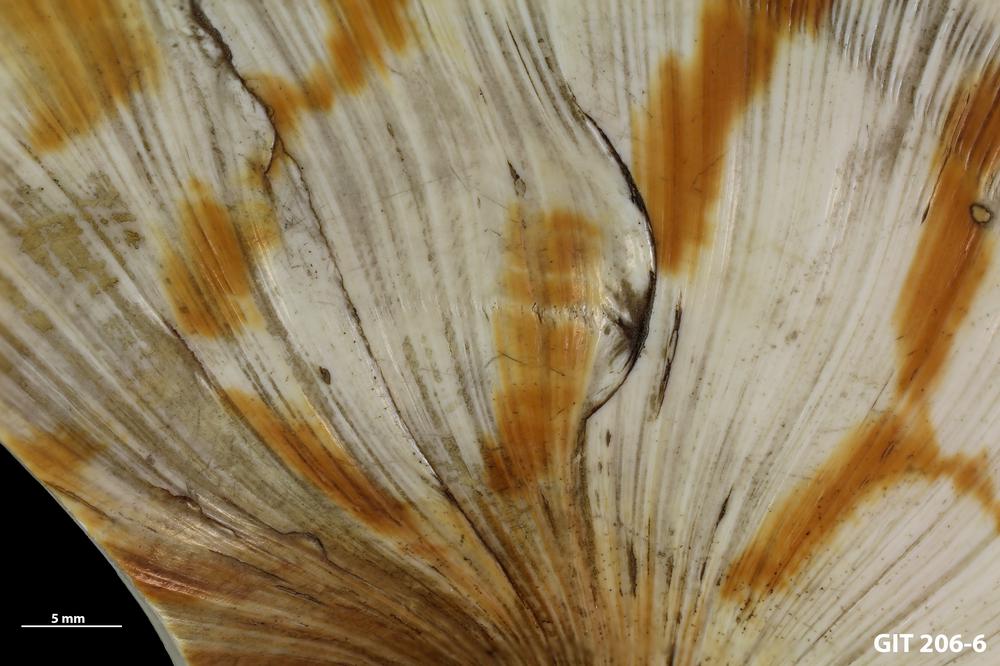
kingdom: Animalia
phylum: Mollusca
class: Cephalopoda
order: Nautilida
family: Nautilidae
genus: Nautilus
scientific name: Nautilus pompilius
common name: Emperor nautilus
